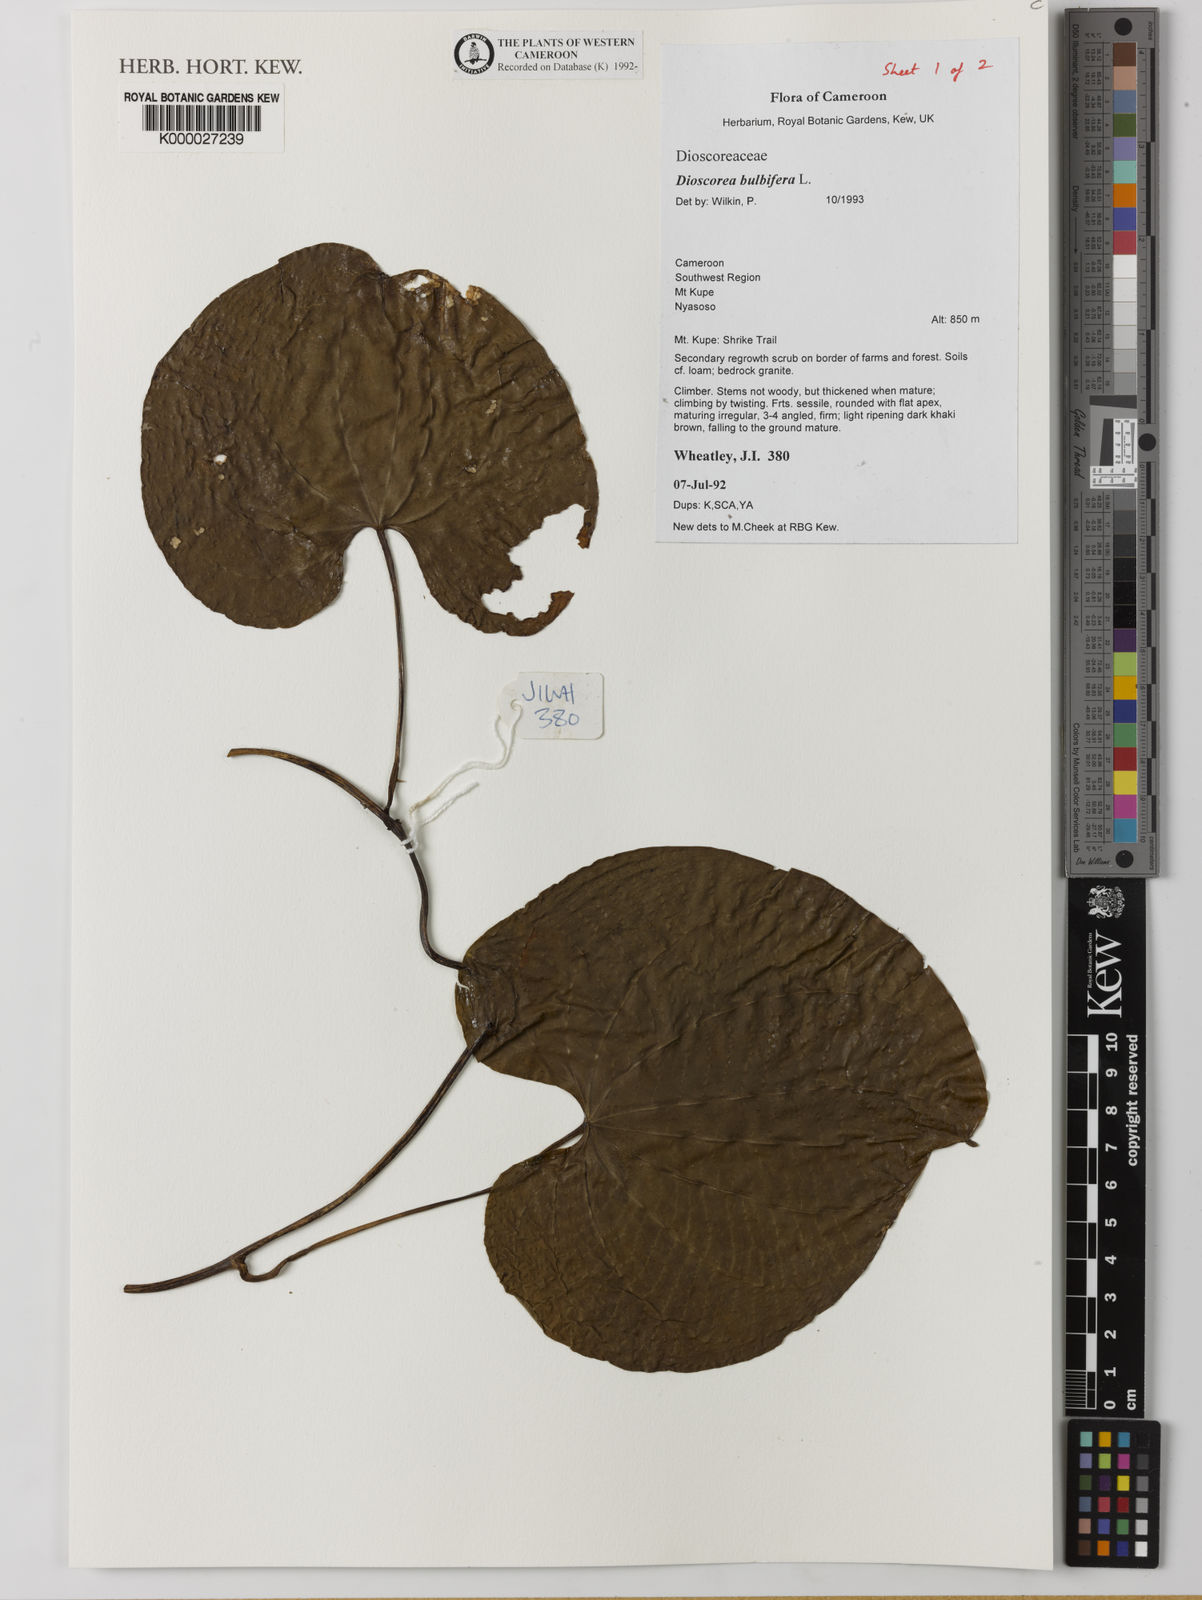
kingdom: Plantae
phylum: Tracheophyta
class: Liliopsida
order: Dioscoreales
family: Dioscoreaceae
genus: Dioscorea
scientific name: Dioscorea bulbifera
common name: Air yam
